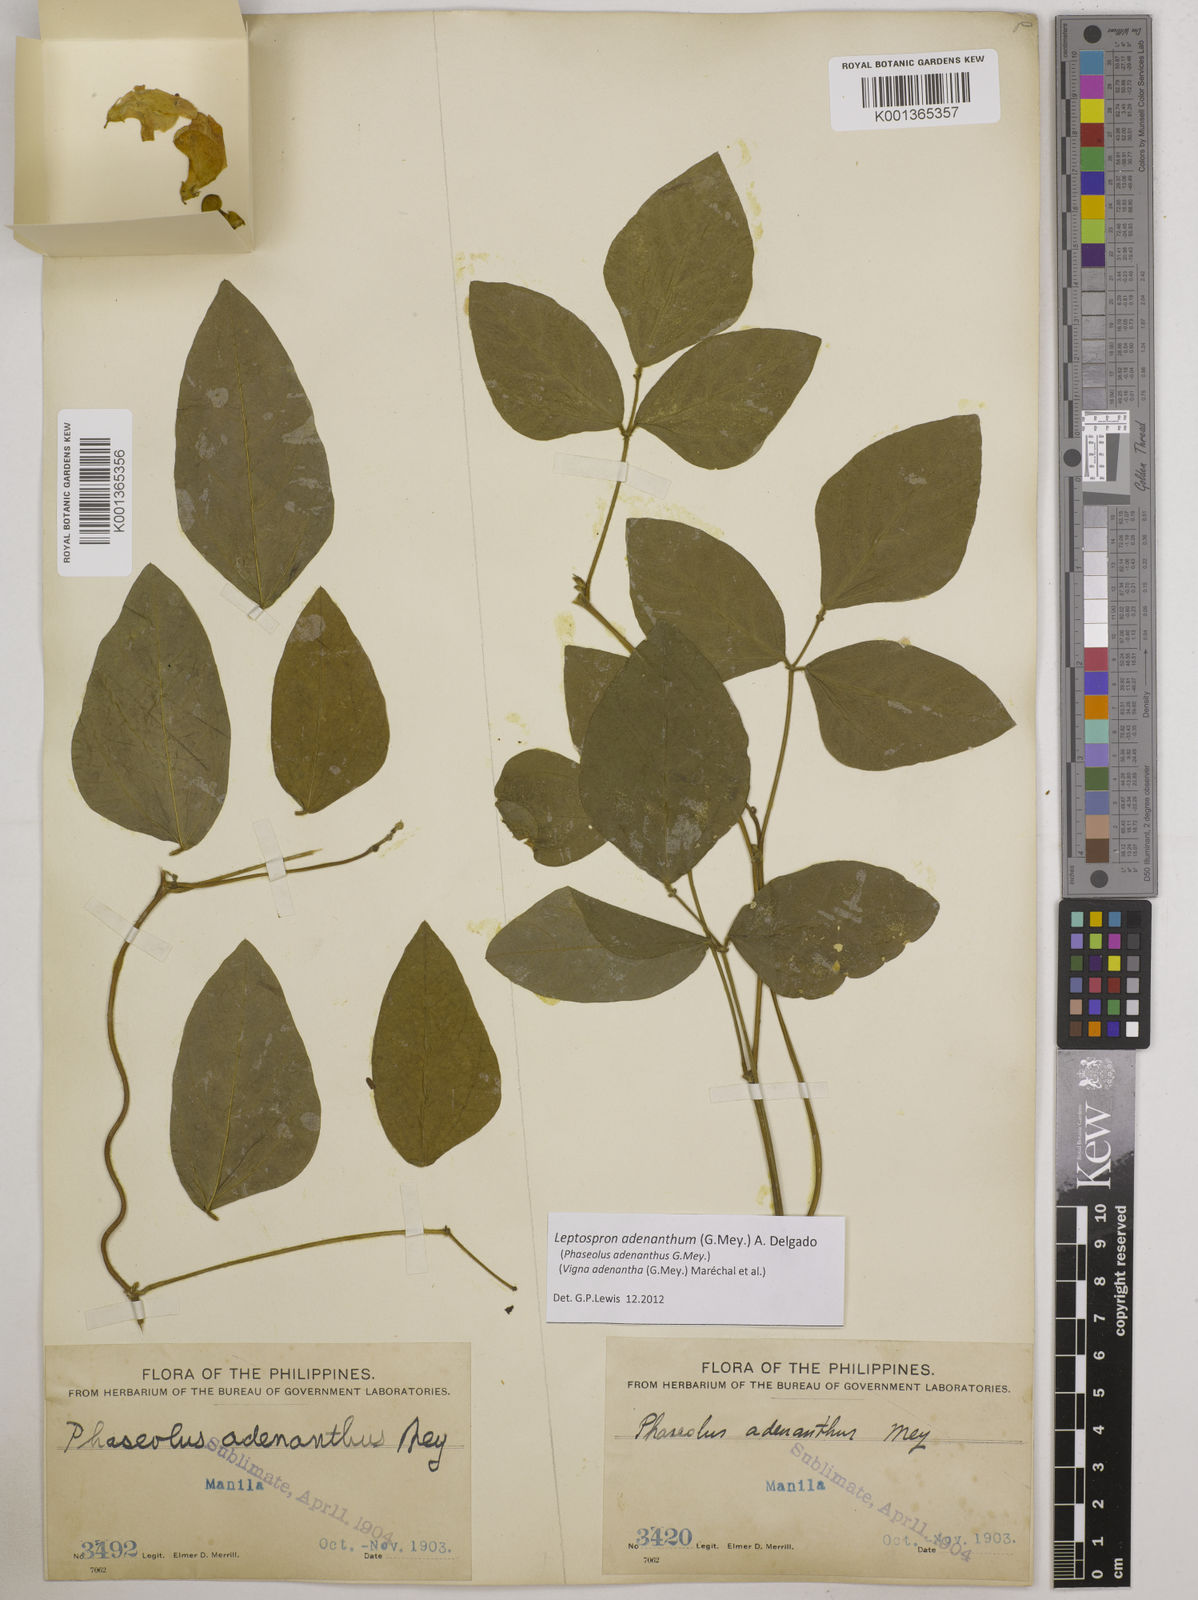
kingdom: Plantae
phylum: Tracheophyta
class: Magnoliopsida
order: Fabales
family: Fabaceae
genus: Leptospron
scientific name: Leptospron adenanthum
